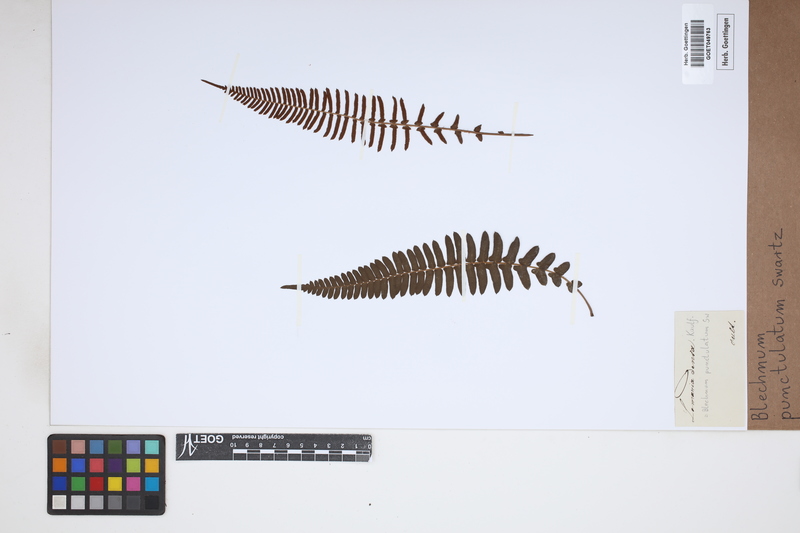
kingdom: Plantae
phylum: Tracheophyta
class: Polypodiopsida
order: Polypodiales
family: Blechnaceae
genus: Blechnum
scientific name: Blechnum punctulatum
